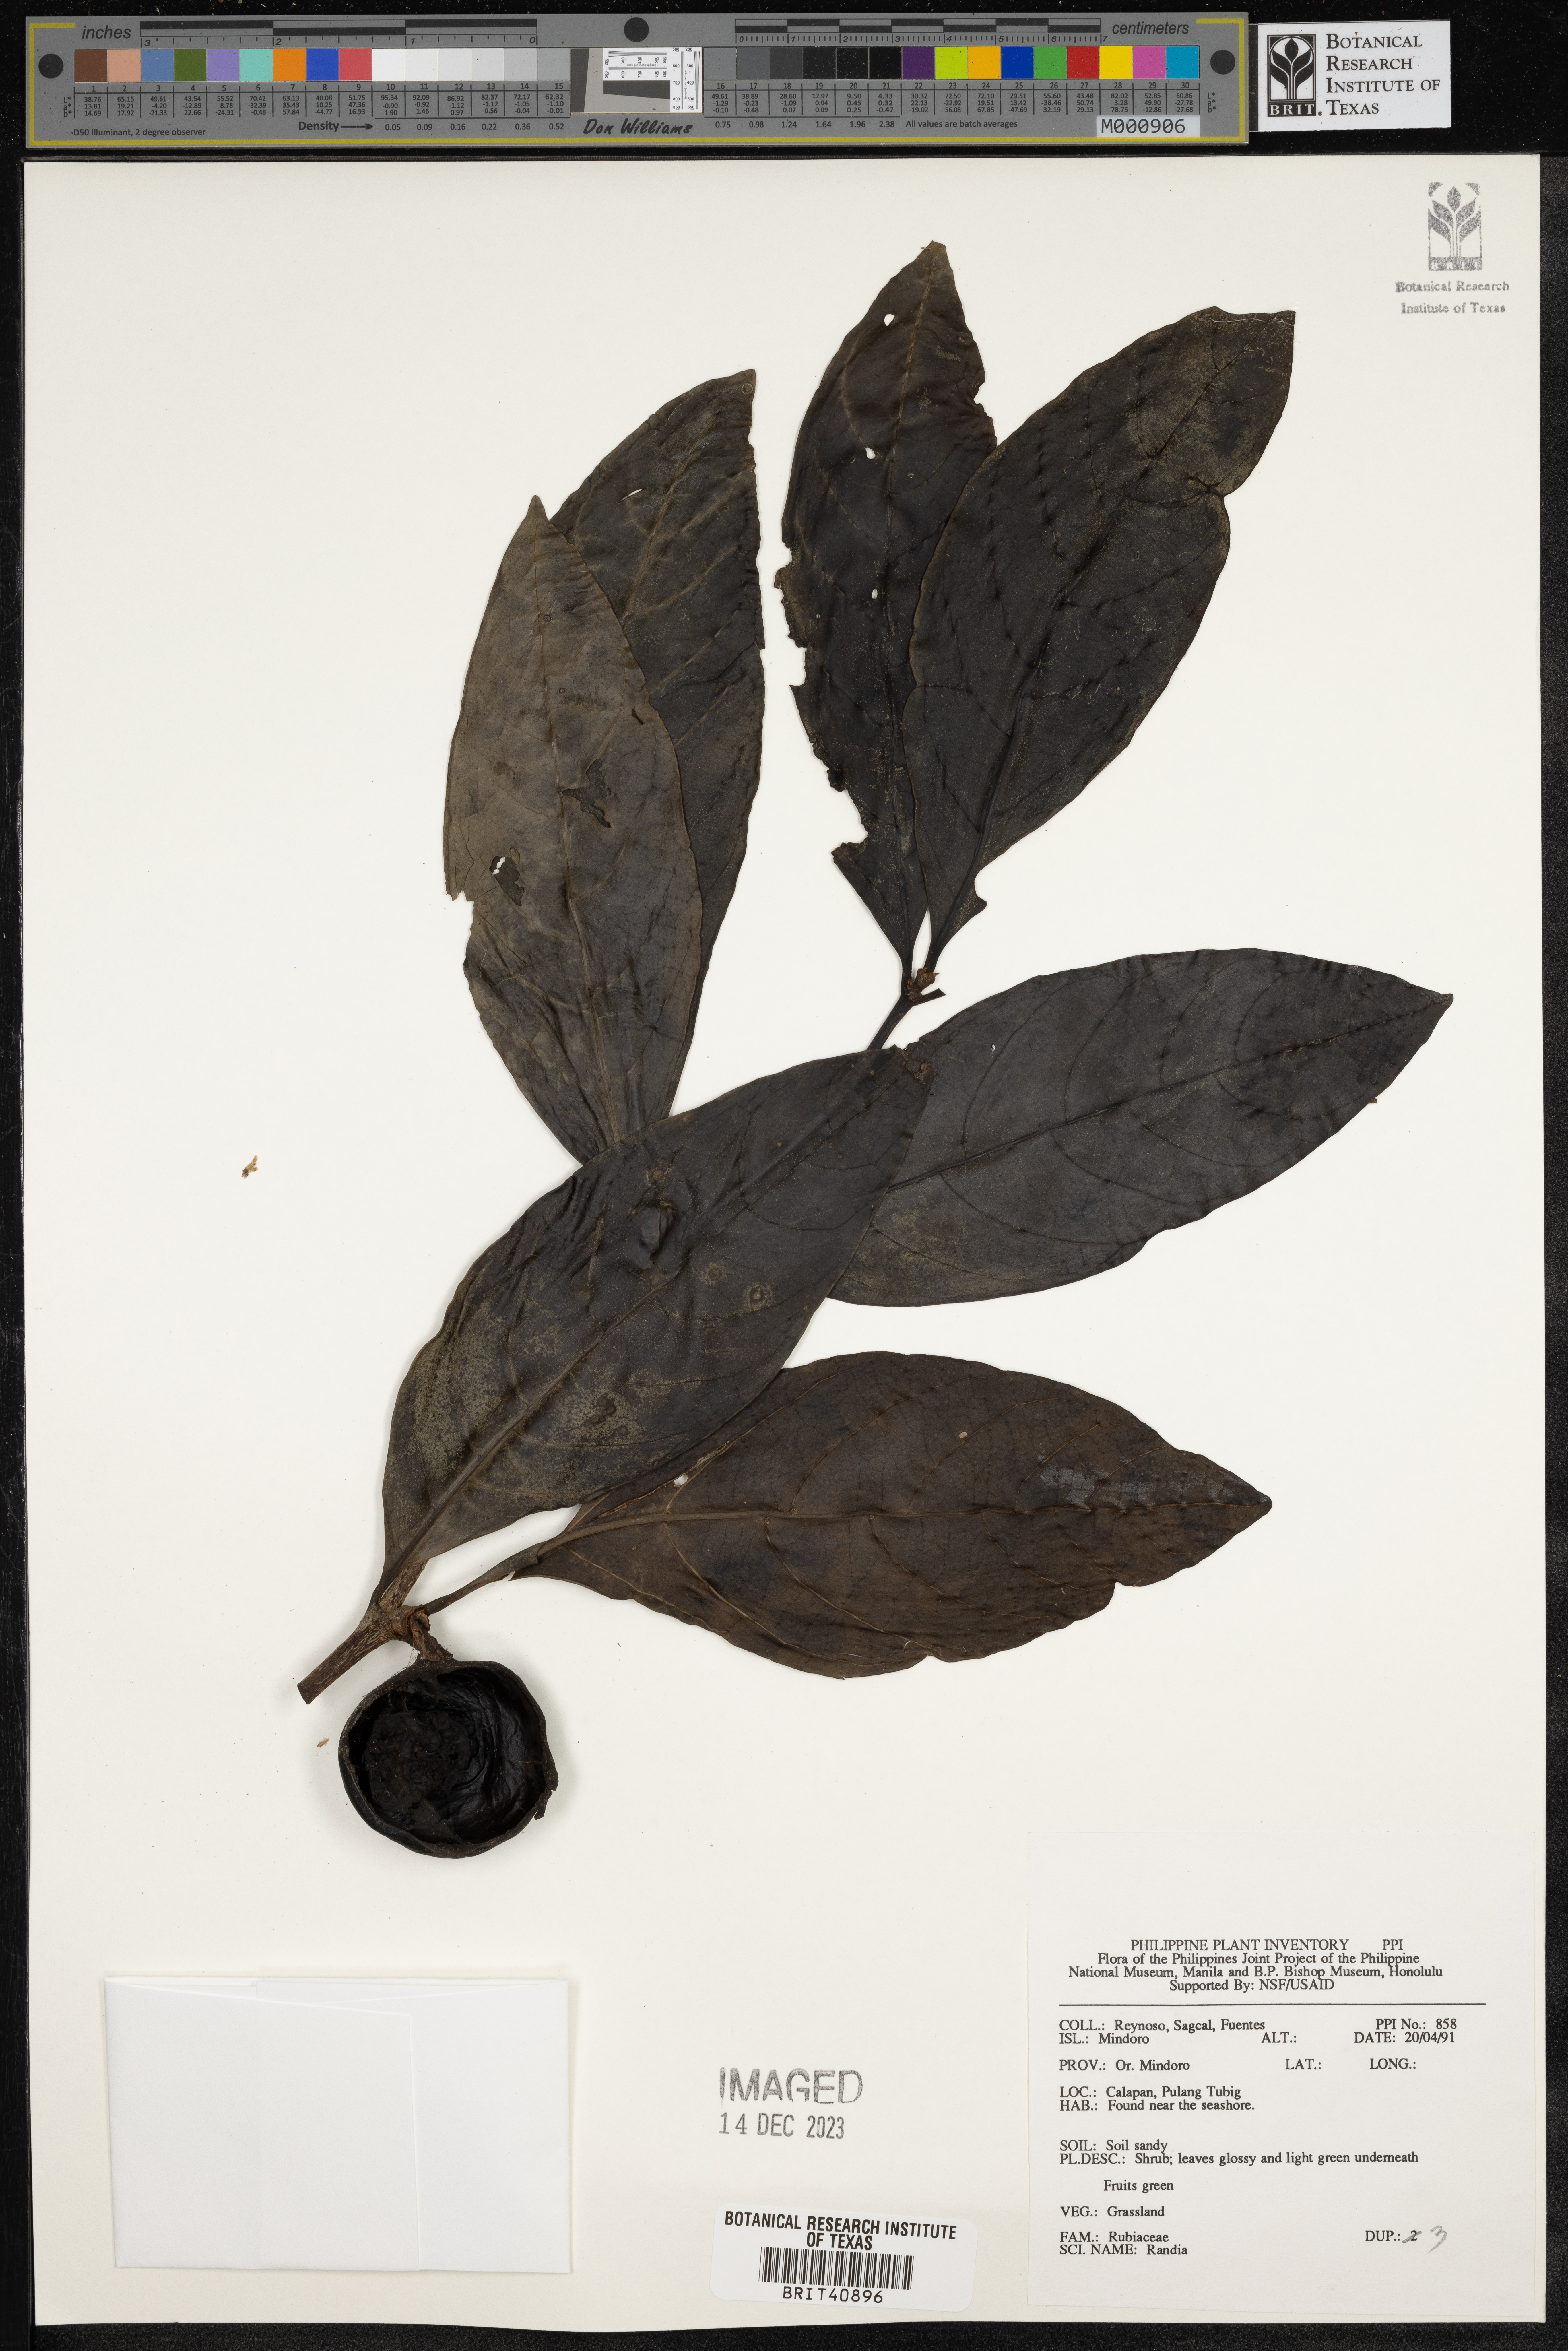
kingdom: Plantae
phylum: Tracheophyta
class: Magnoliopsida
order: Gentianales
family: Rubiaceae
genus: Randia
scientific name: Randia
